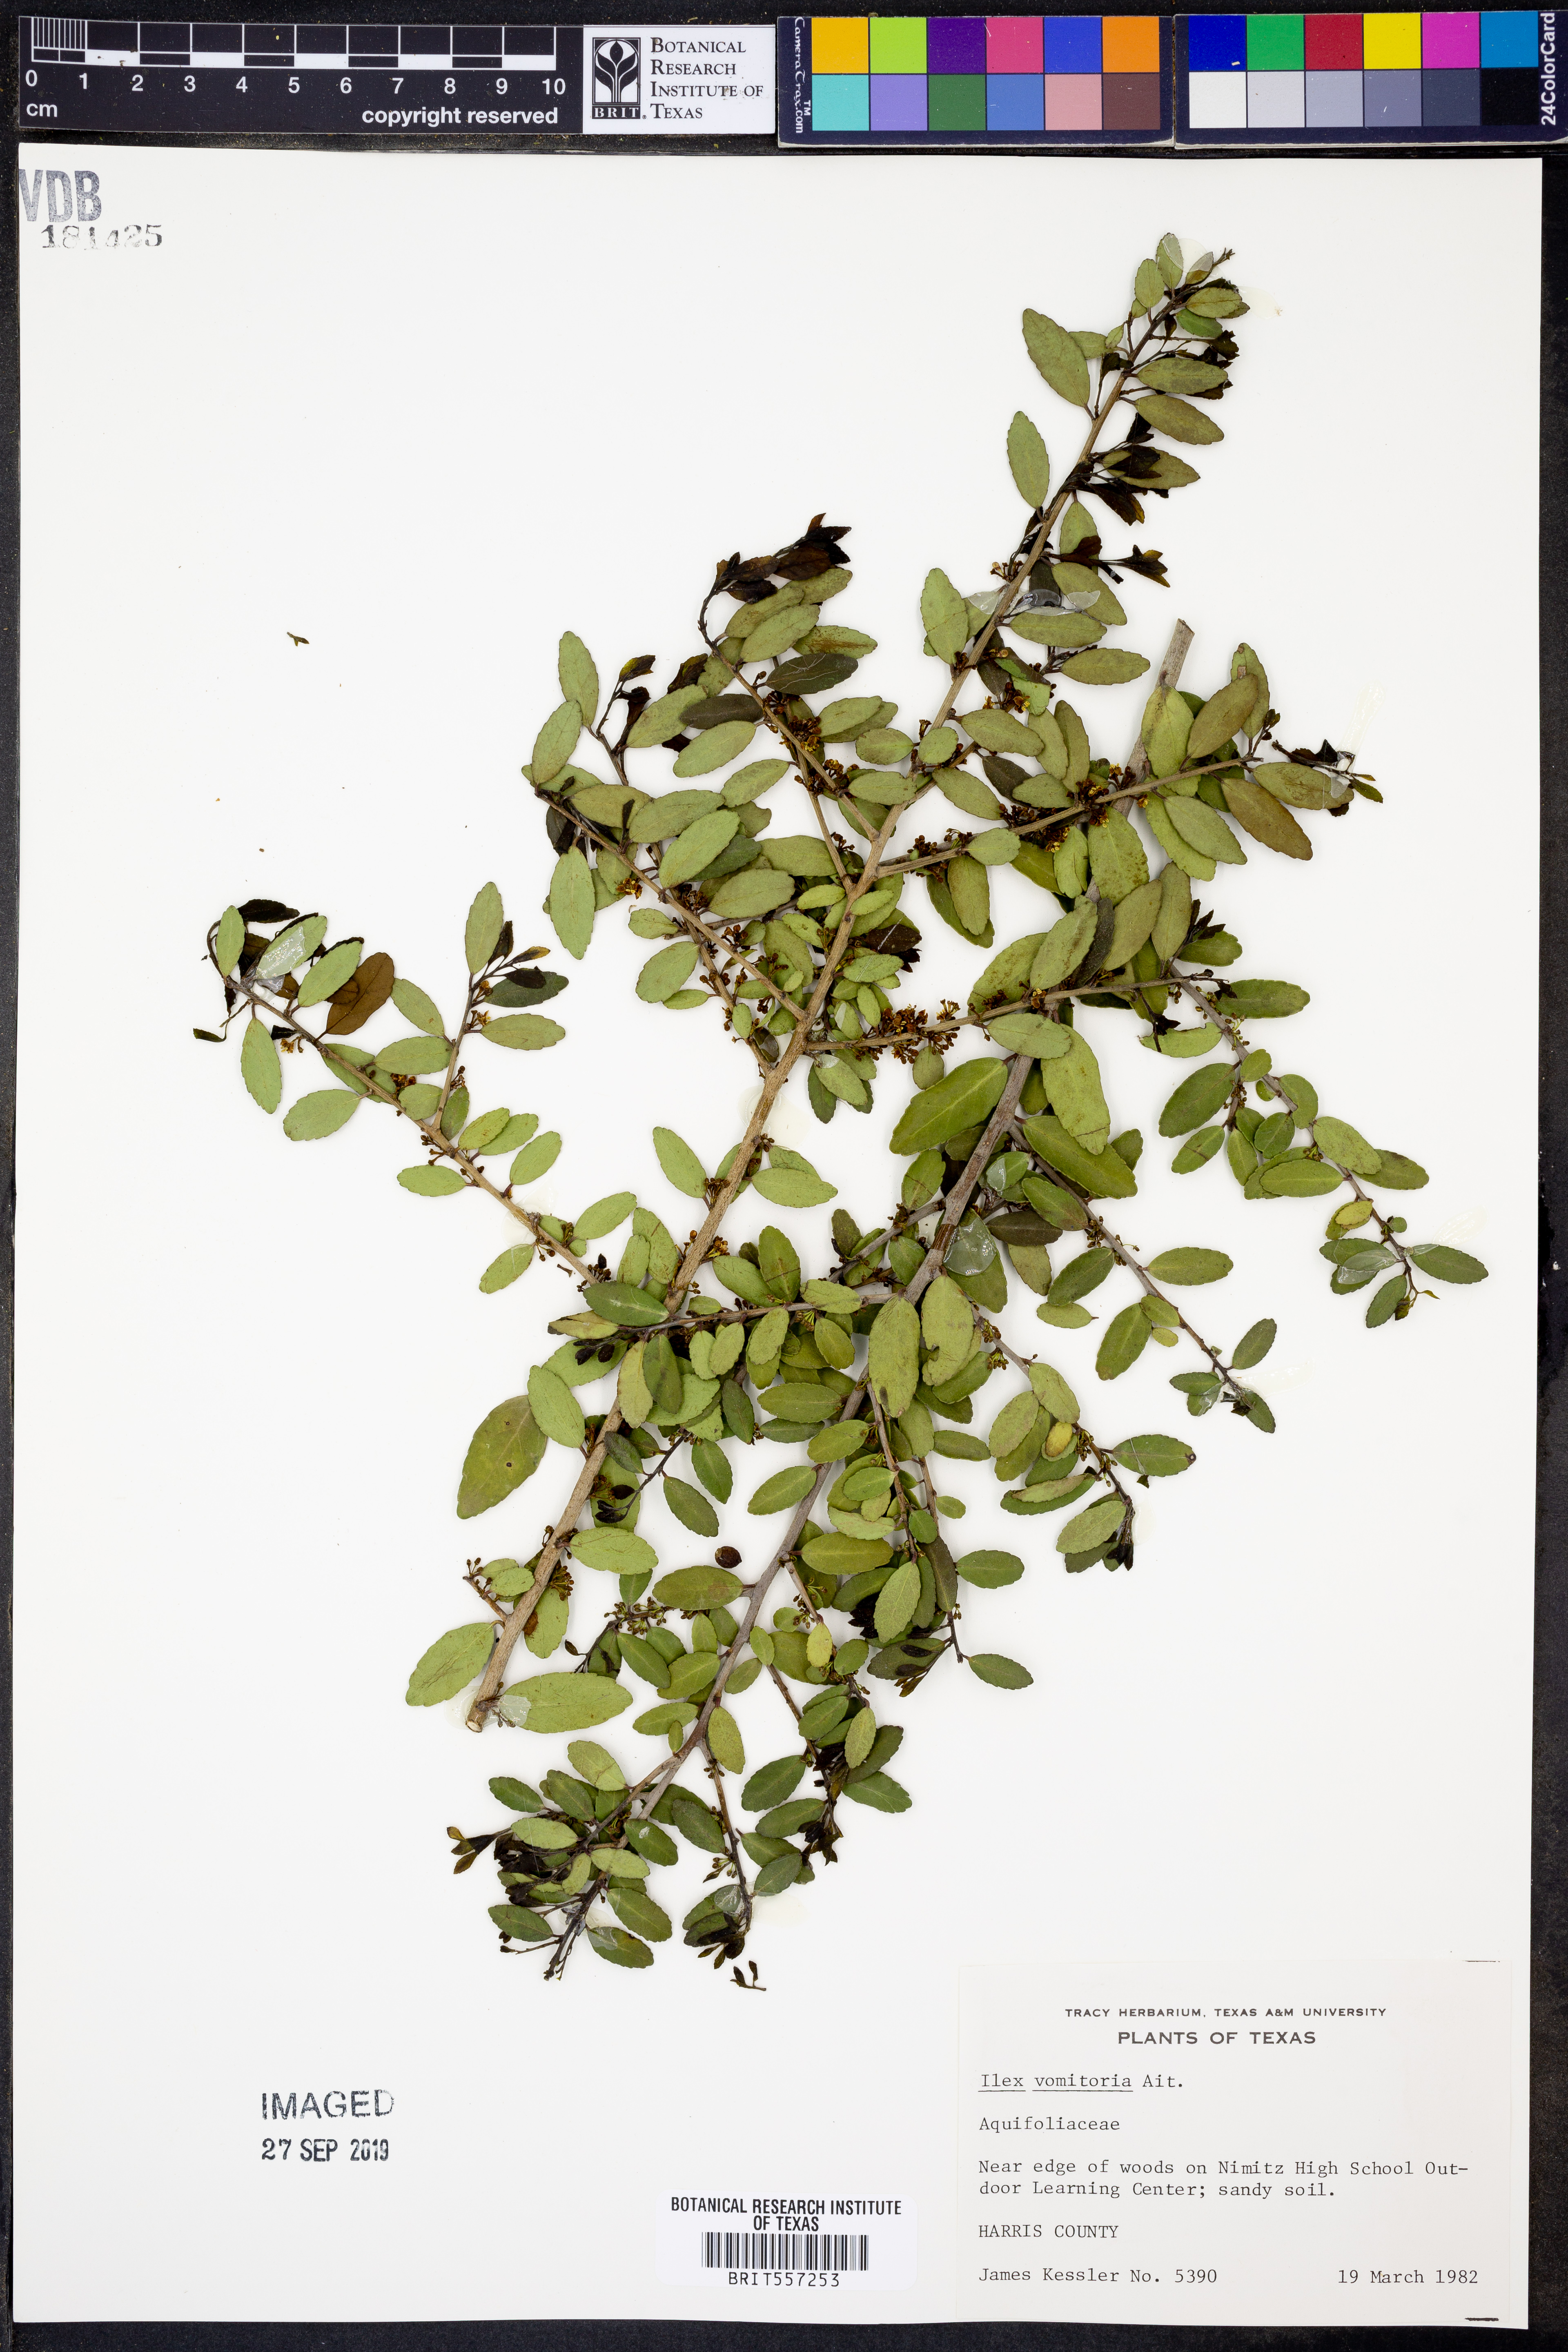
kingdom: Plantae
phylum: Tracheophyta
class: Magnoliopsida
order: Aquifoliales
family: Aquifoliaceae
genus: Ilex
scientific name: Ilex vomitoria
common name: Yaupon holly
